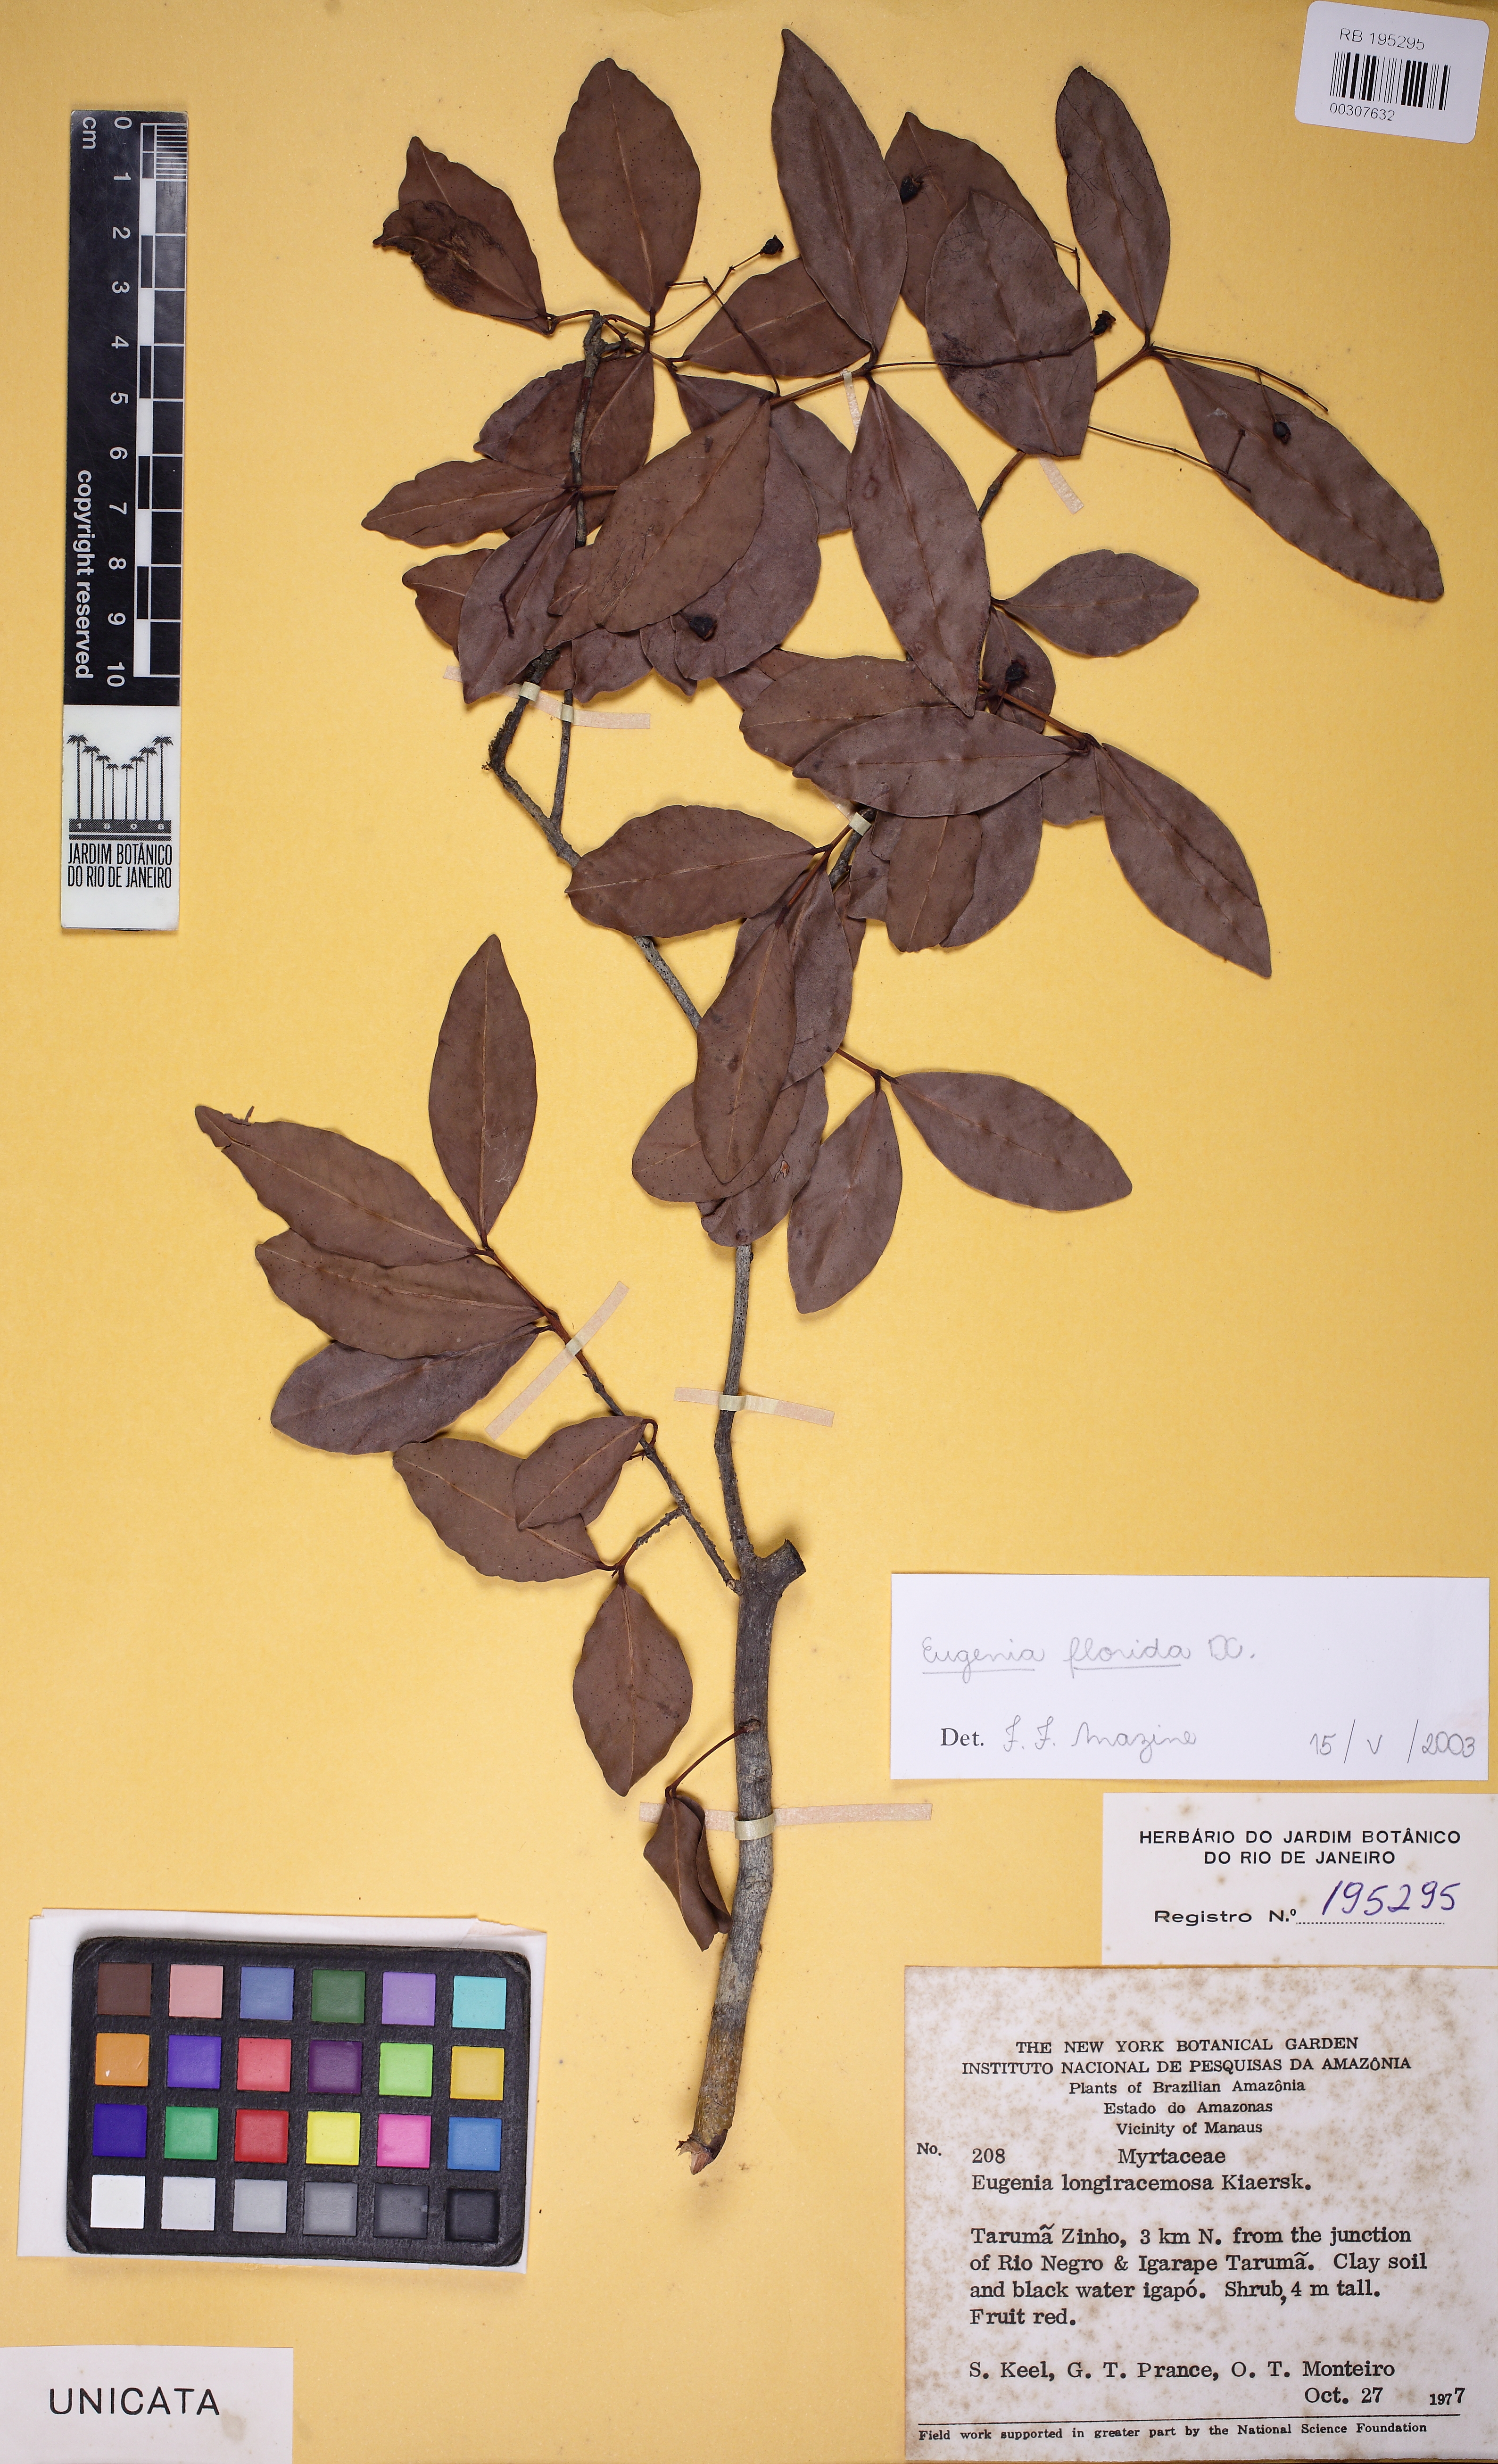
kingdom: Plantae
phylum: Tracheophyta
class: Magnoliopsida
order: Myrtales
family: Myrtaceae
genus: Eugenia
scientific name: Eugenia florida
